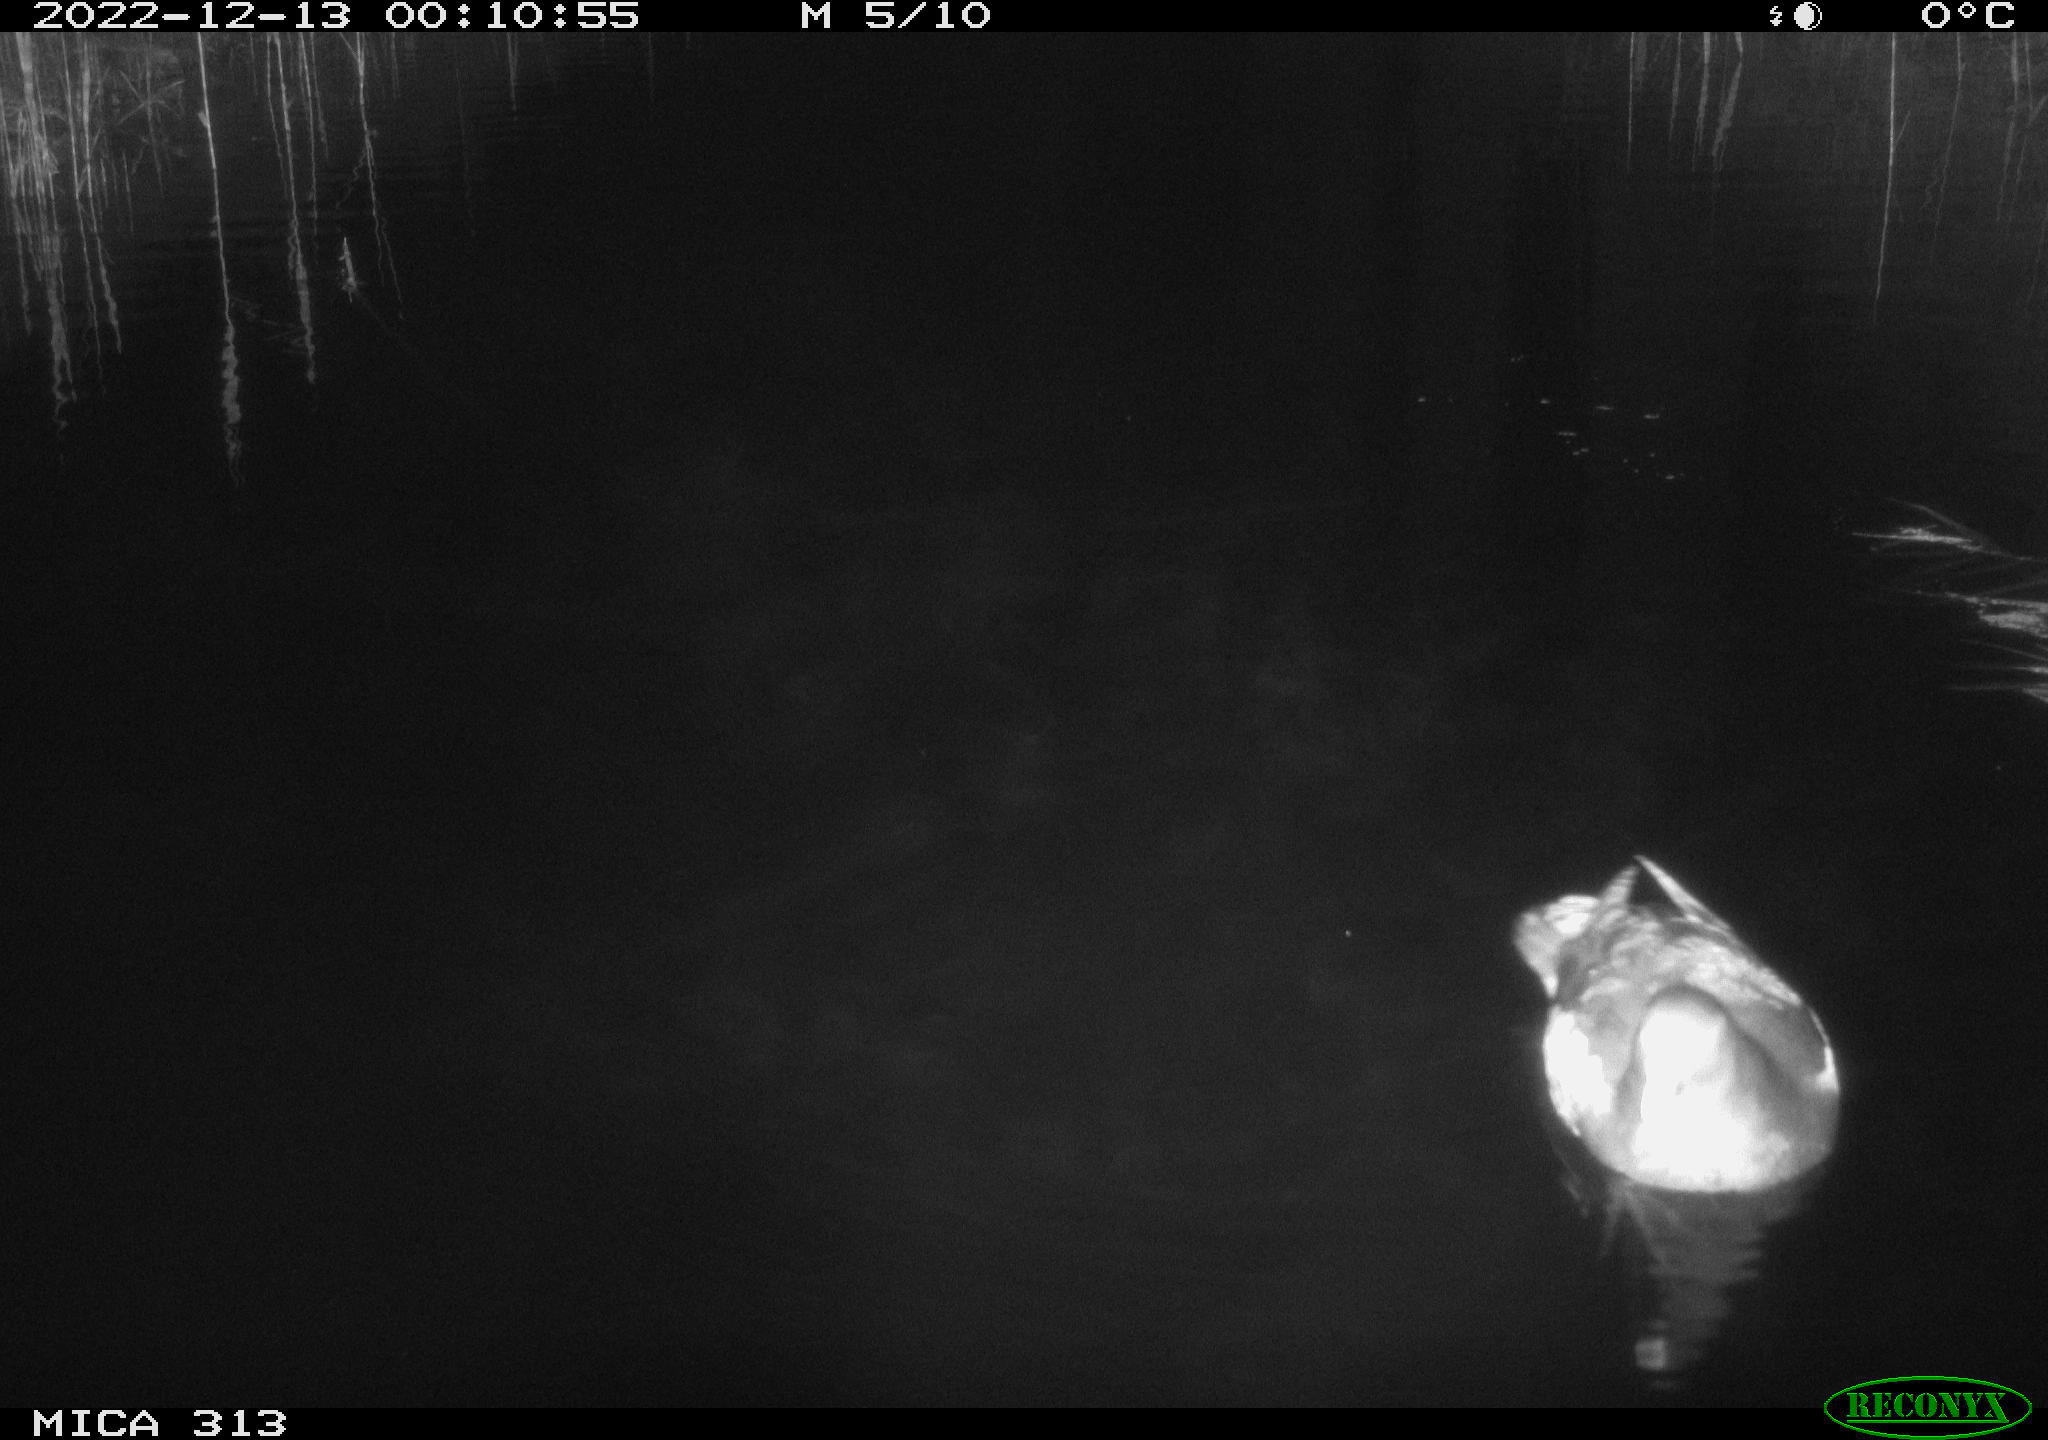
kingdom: Animalia
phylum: Chordata
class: Aves
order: Anseriformes
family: Anatidae
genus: Anas
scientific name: Anas
